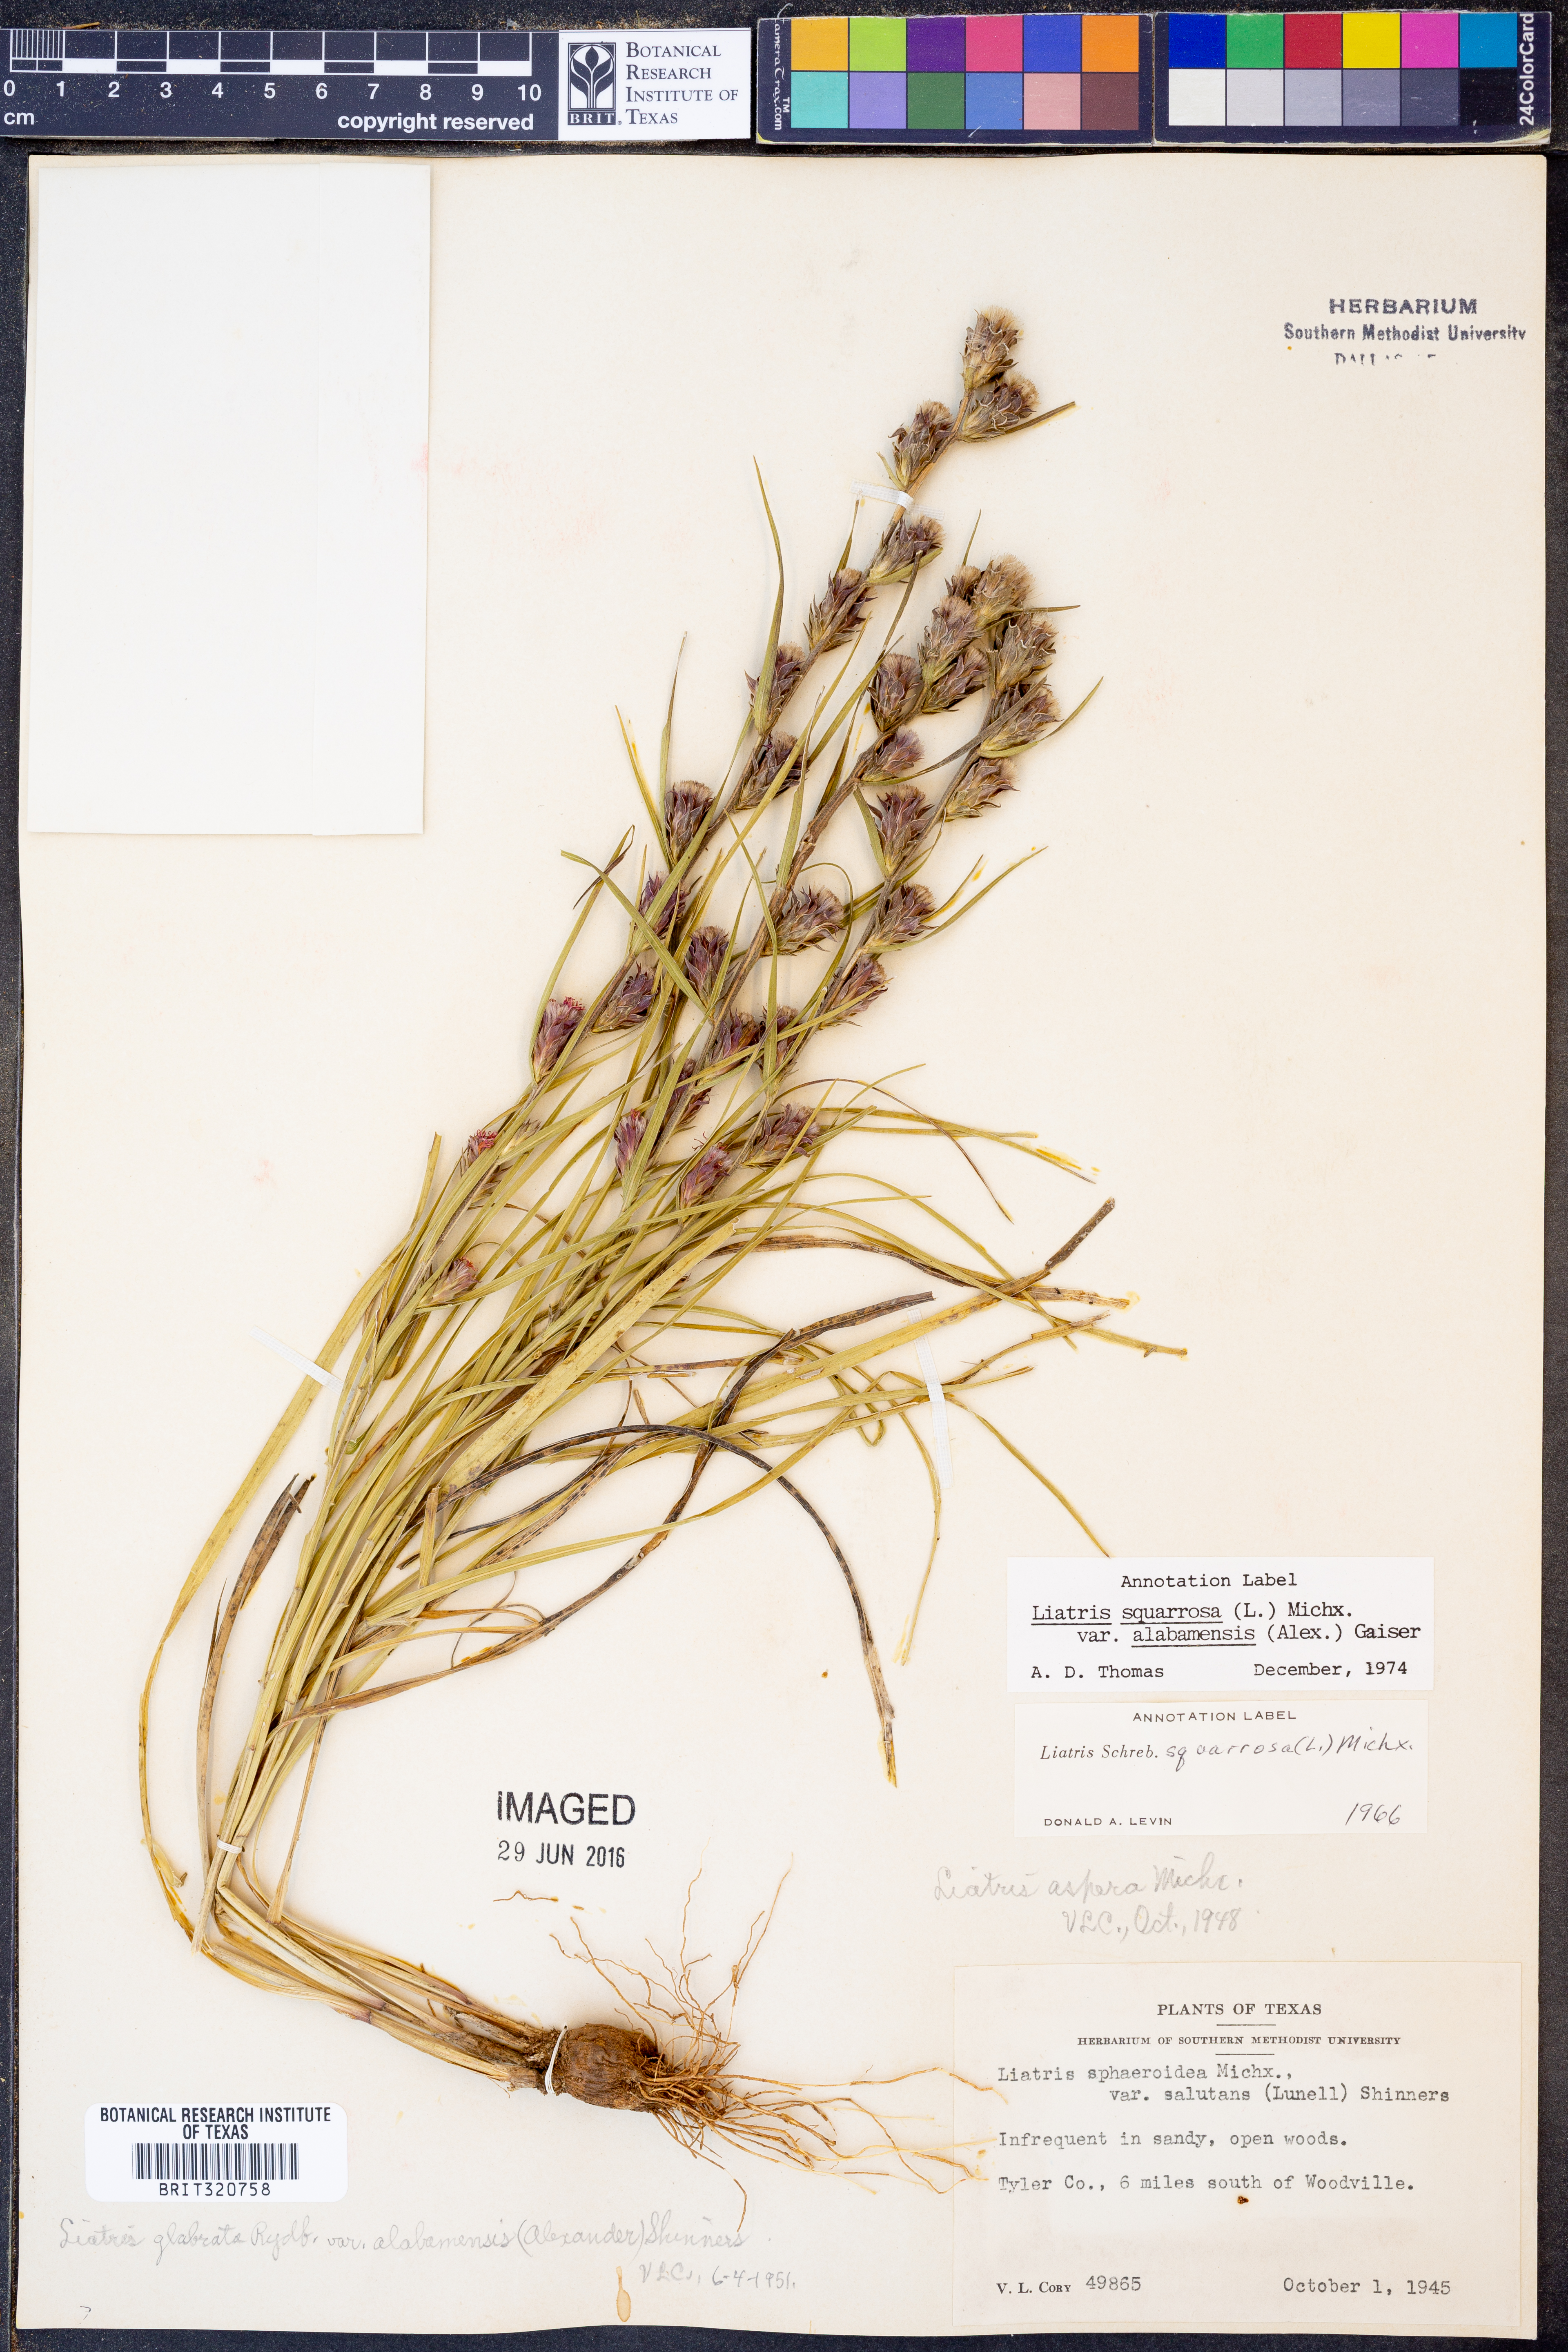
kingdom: Plantae
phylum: Tracheophyta
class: Magnoliopsida
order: Asterales
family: Asteraceae
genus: Liatris
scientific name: Liatris squarrosa
